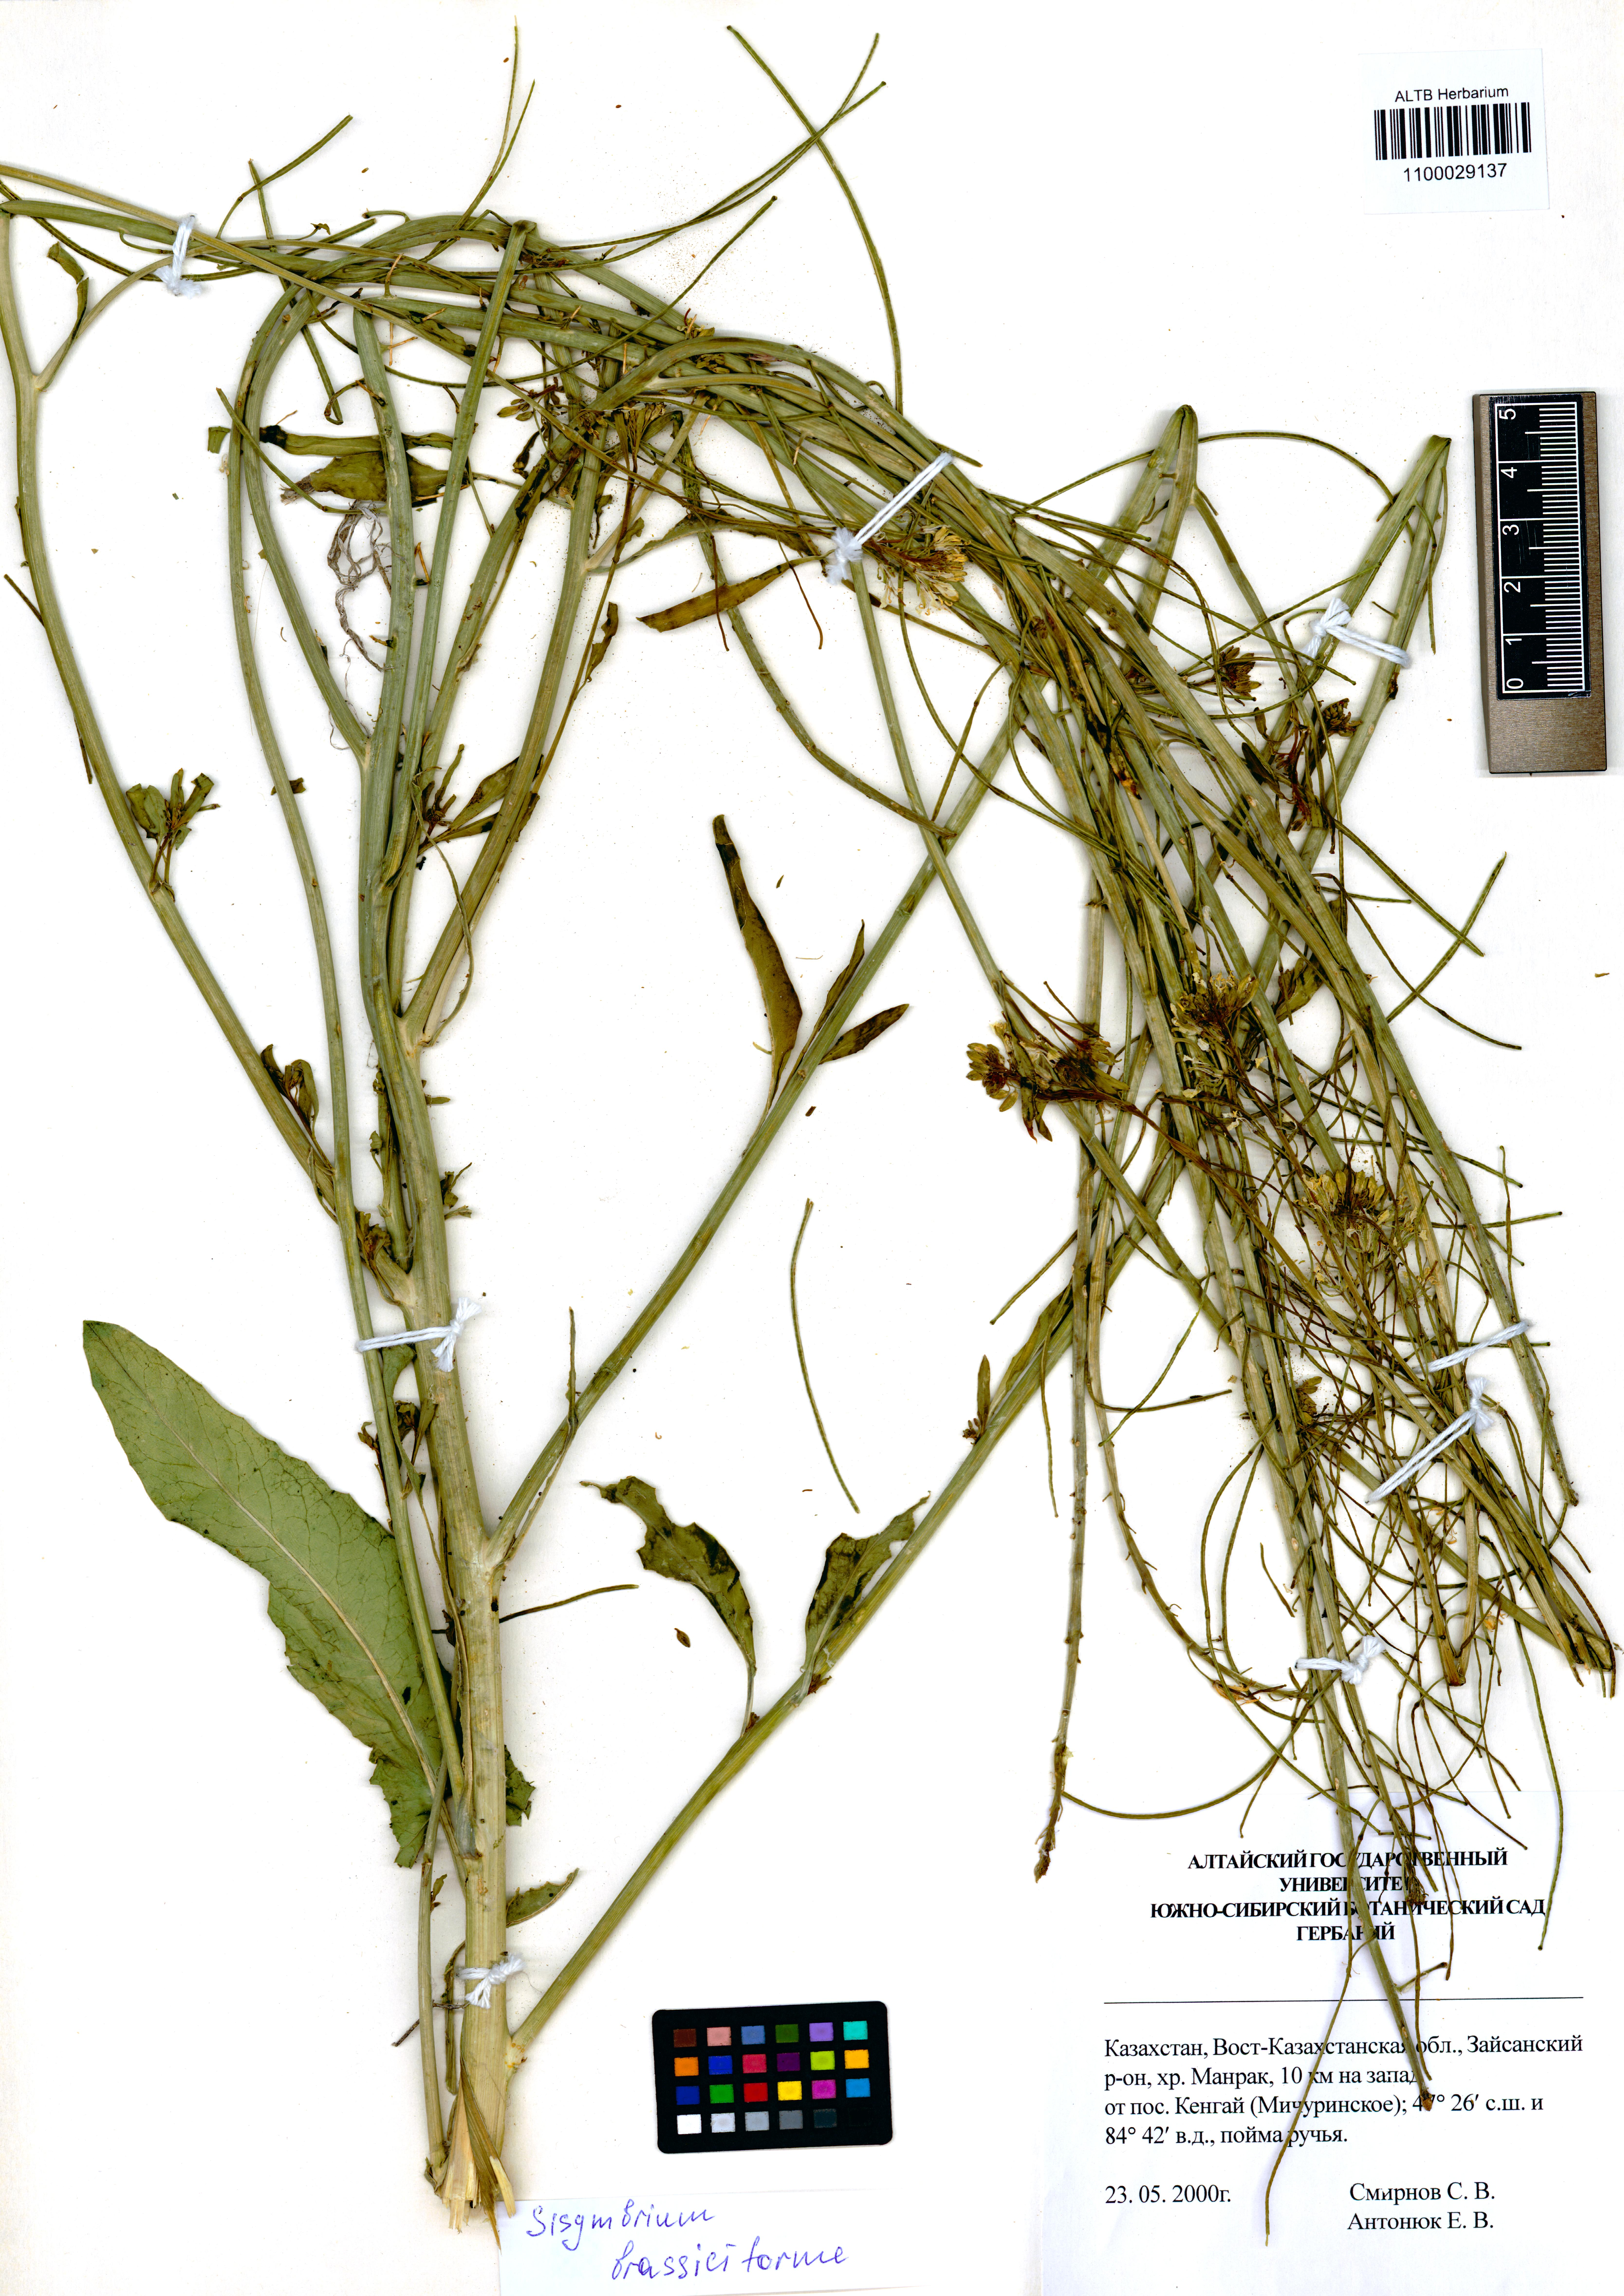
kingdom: Plantae
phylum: Tracheophyta
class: Magnoliopsida
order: Brassicales
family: Brassicaceae
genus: Sisymbrium
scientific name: Sisymbrium brassiciforme
